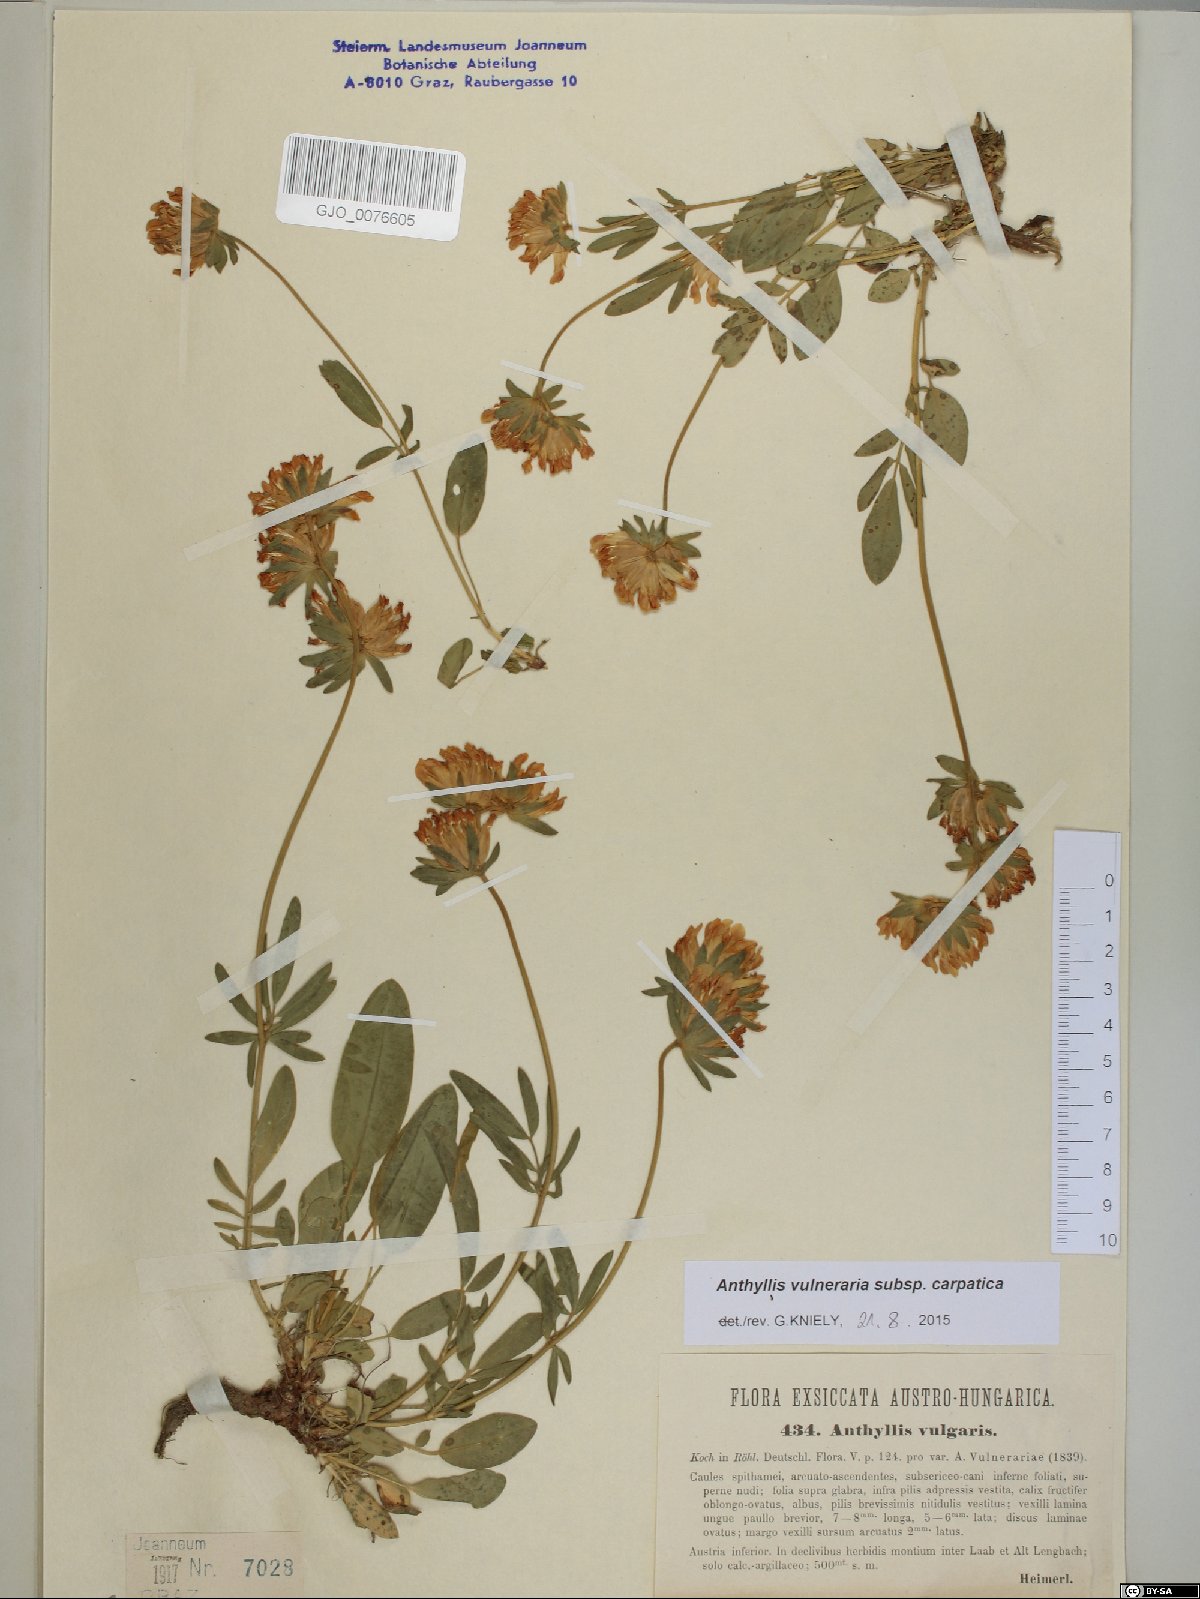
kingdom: Plantae
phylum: Tracheophyta
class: Magnoliopsida
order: Fabales
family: Fabaceae
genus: Anthyllis
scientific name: Anthyllis vulneraria
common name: Kidney vetch
